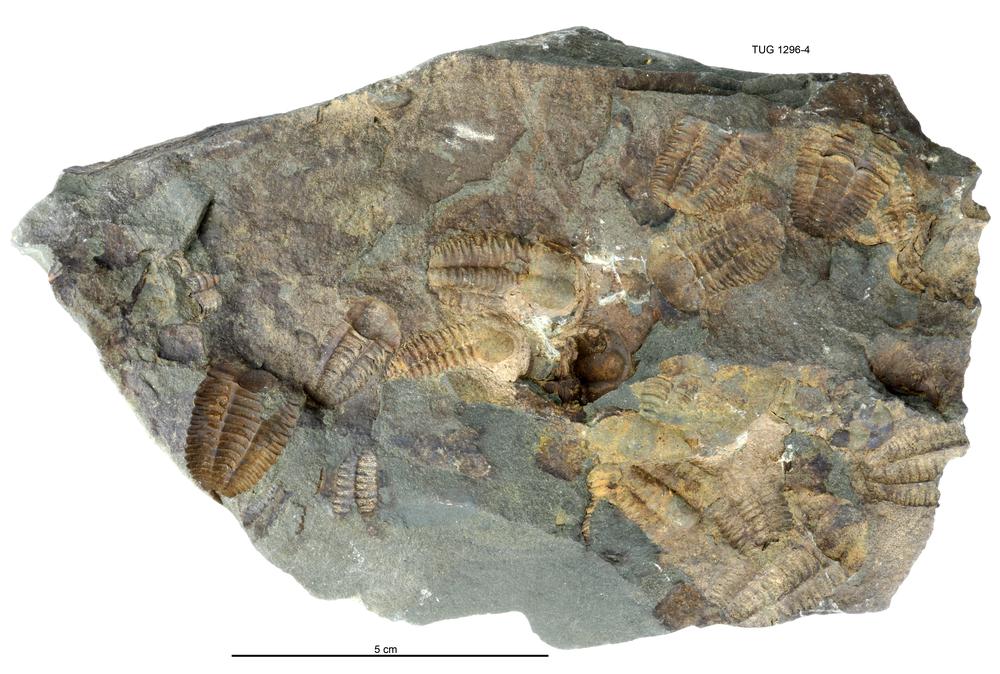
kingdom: Animalia
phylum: Arthropoda
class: Trilobita
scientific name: Trilobita
